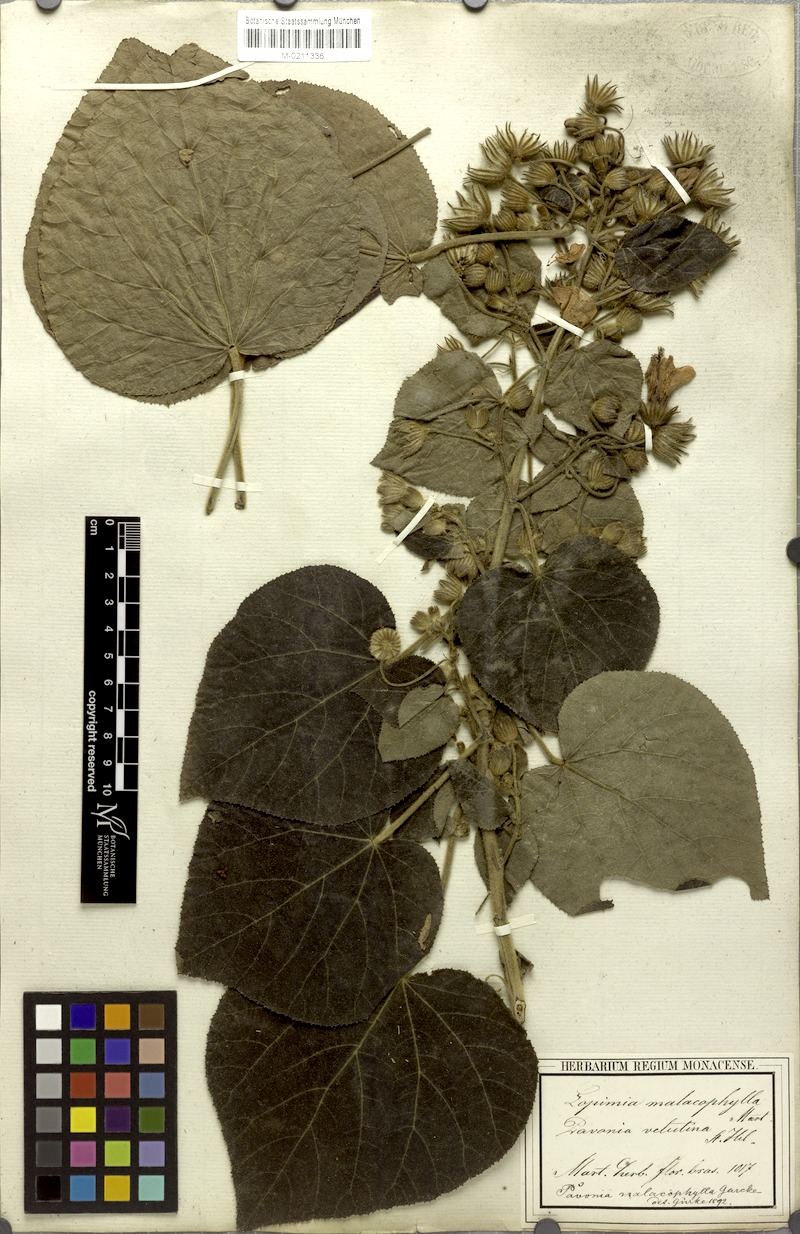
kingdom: Plantae
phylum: Tracheophyta
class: Magnoliopsida
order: Malvales
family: Malvaceae
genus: Pavonia
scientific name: Pavonia malacophylla
